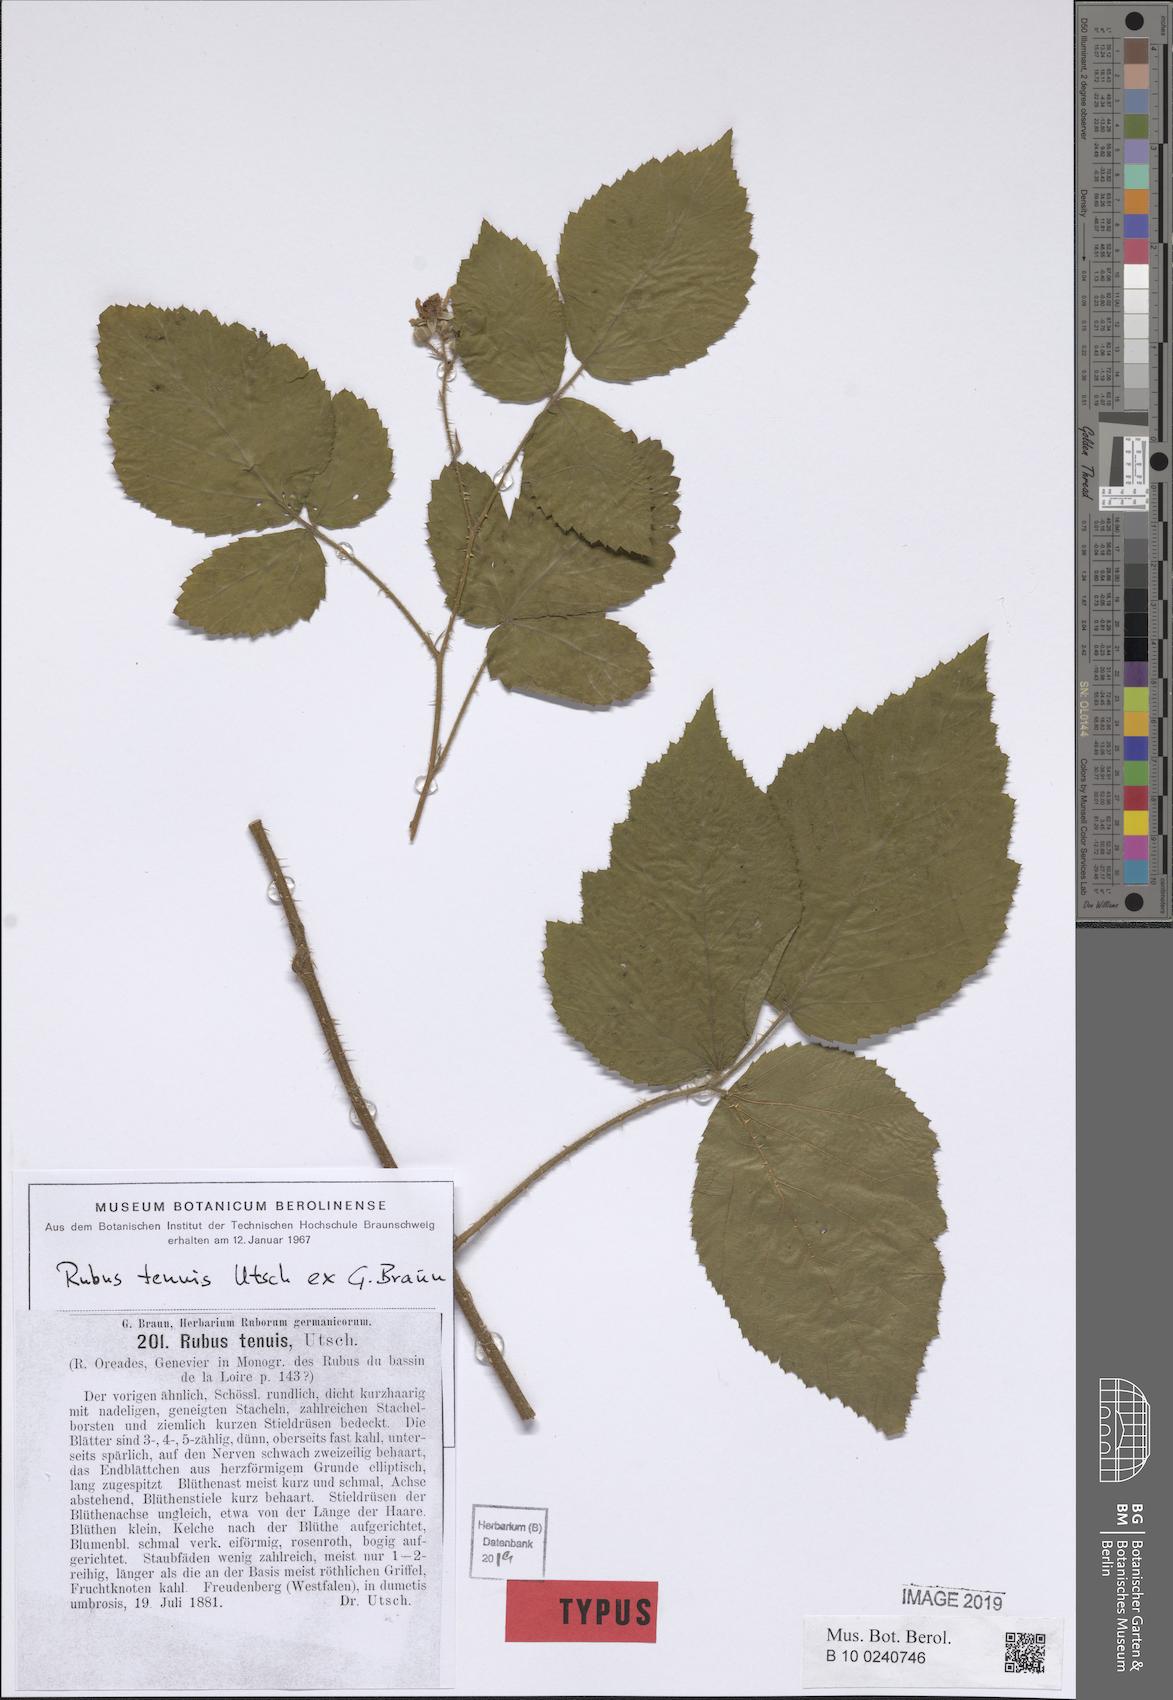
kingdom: Plantae
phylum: Tracheophyta
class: Magnoliopsida
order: Rosales
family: Rosaceae
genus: Rubus
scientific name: Rubus tenuis
